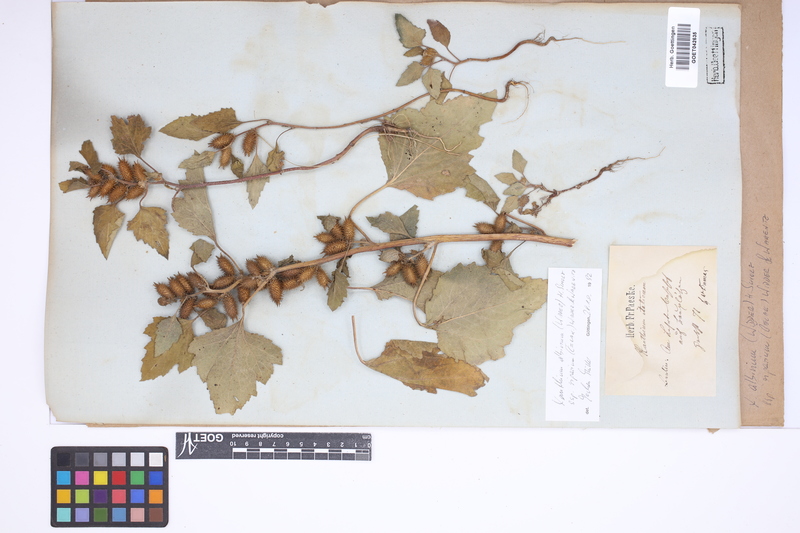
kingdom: Plantae
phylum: Tracheophyta
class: Magnoliopsida
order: Asterales
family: Asteraceae
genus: Xanthium
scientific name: Xanthium orientale
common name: Californian burr
